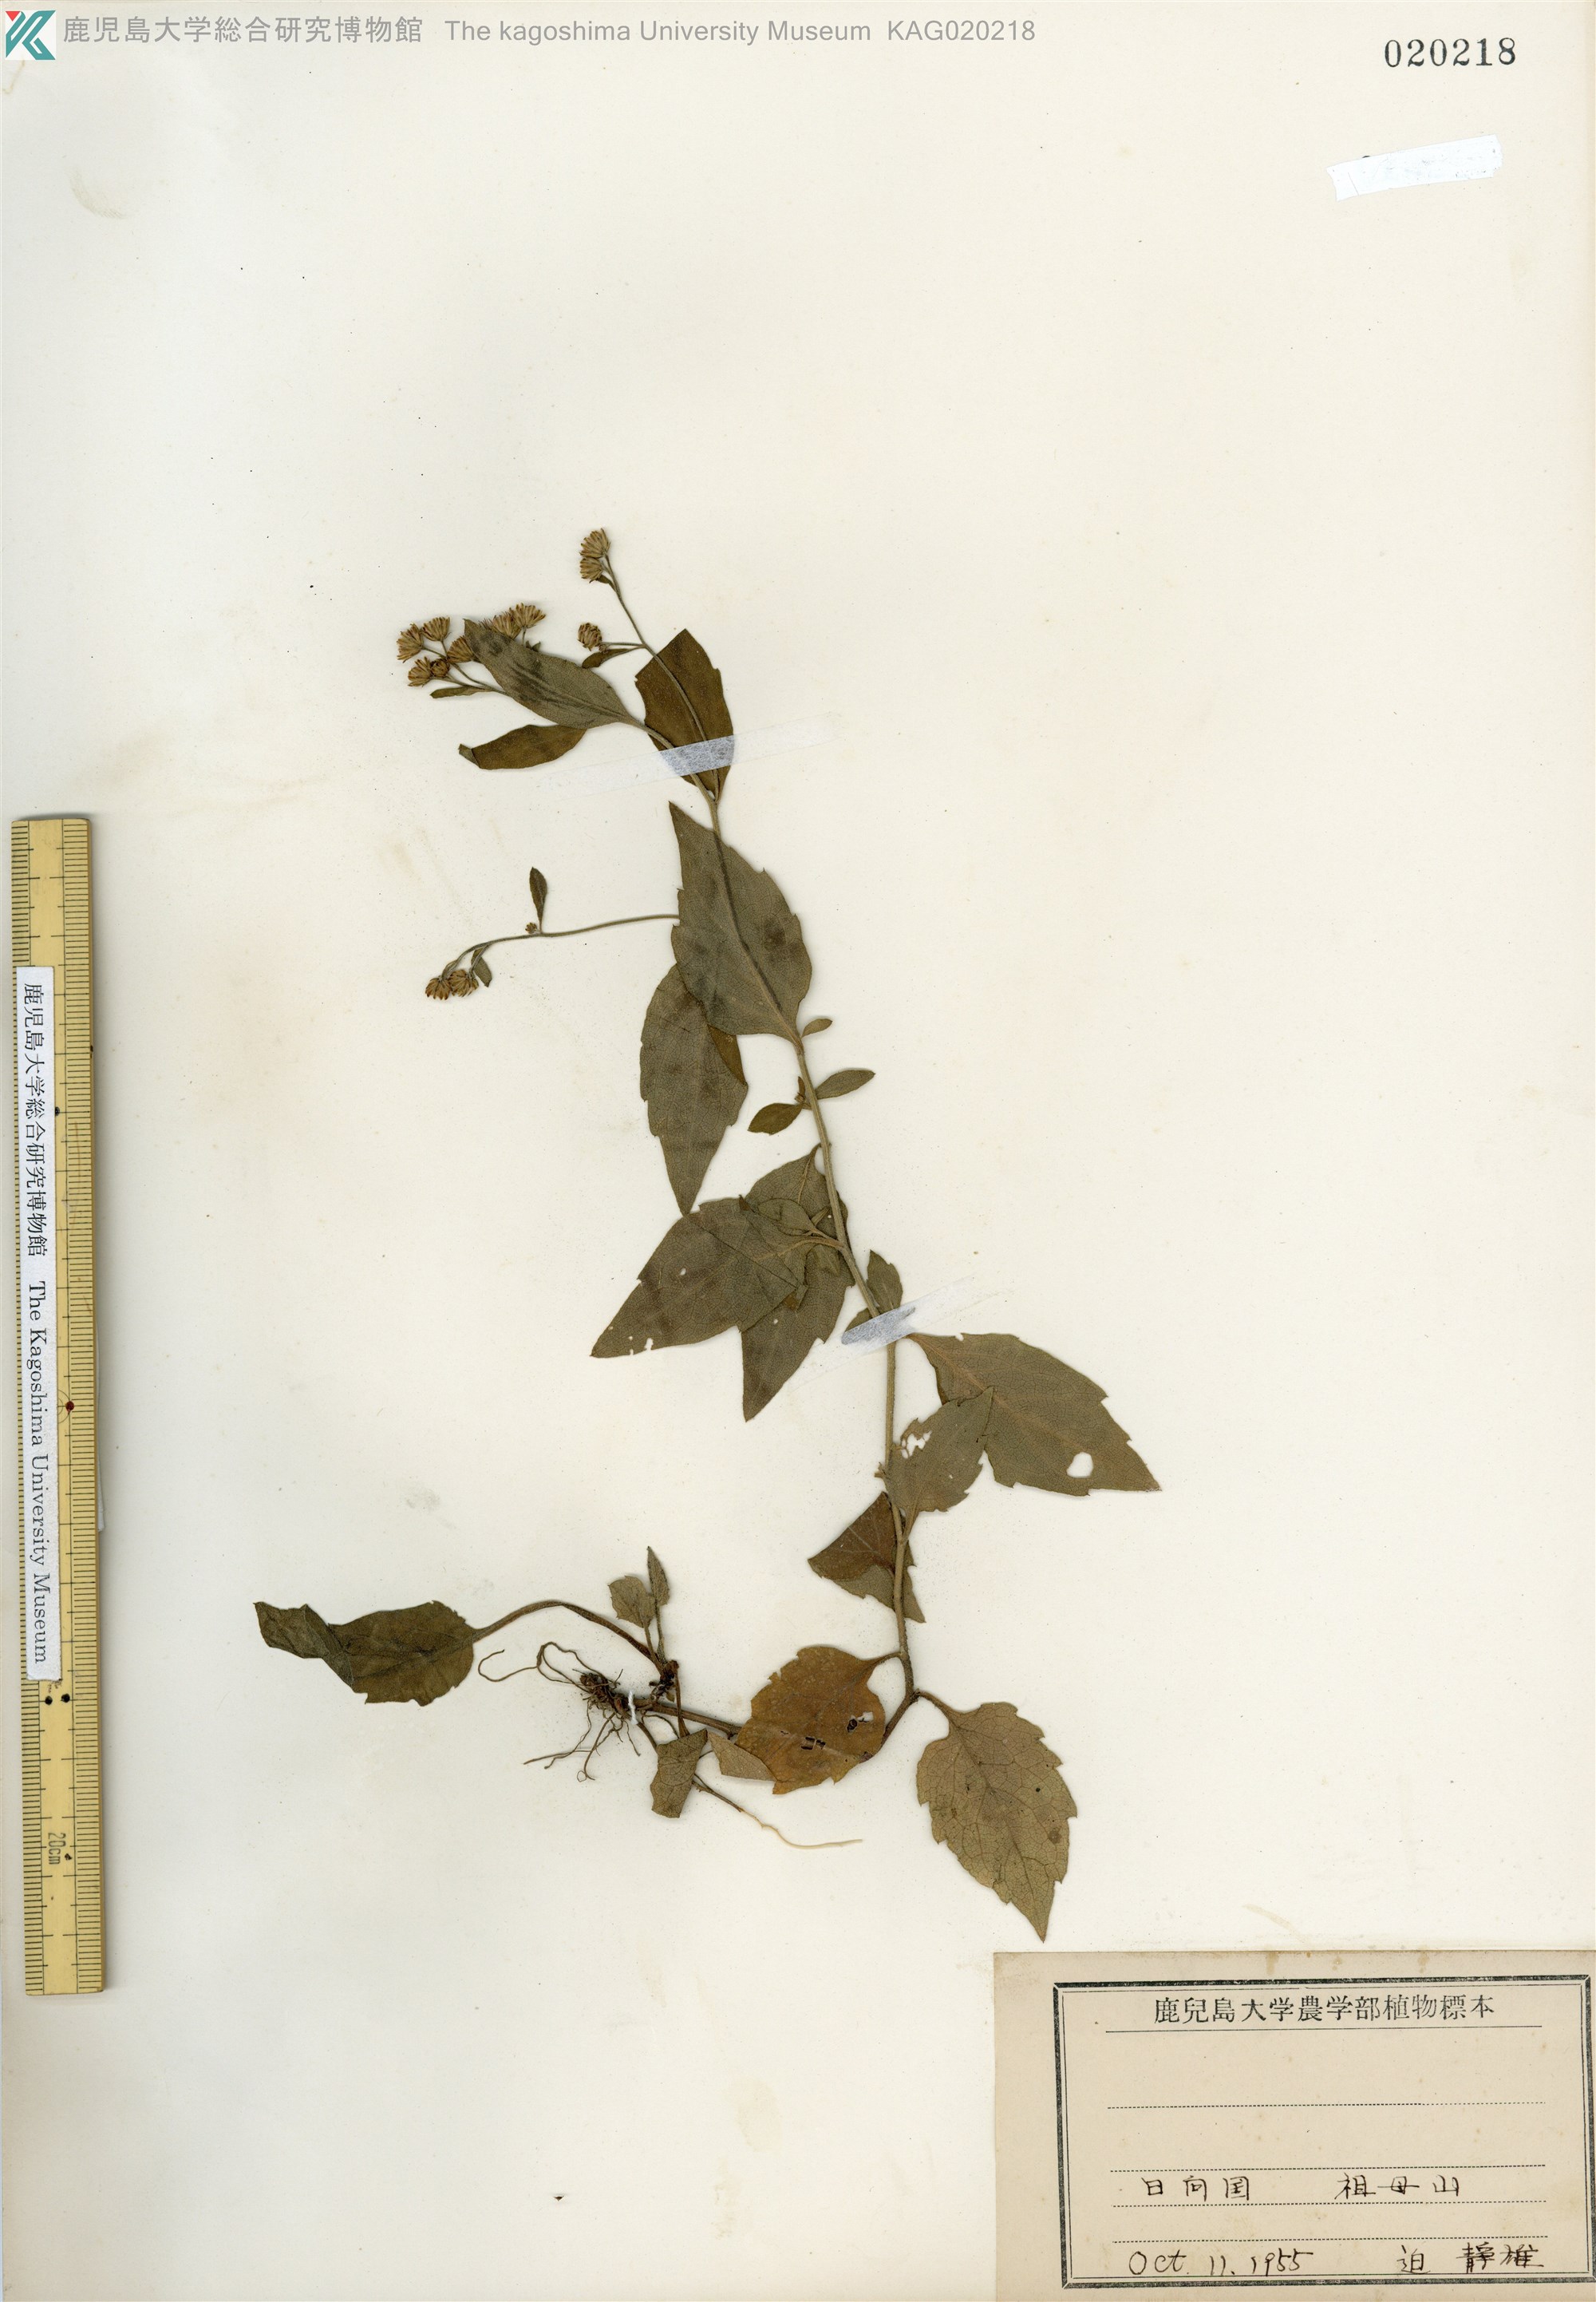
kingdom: Plantae
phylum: Tracheophyta
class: Magnoliopsida
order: Asterales
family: Asteraceae
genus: Aster
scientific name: Aster microcephalus
